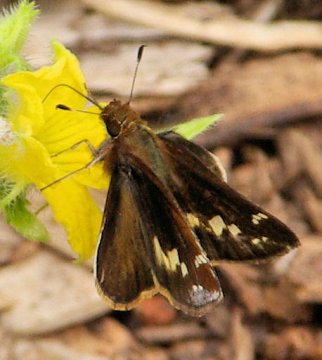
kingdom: Animalia
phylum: Arthropoda
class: Insecta
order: Lepidoptera
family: Hesperiidae
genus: Lon
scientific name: Lon zabulon
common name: Zabulon Skipper
